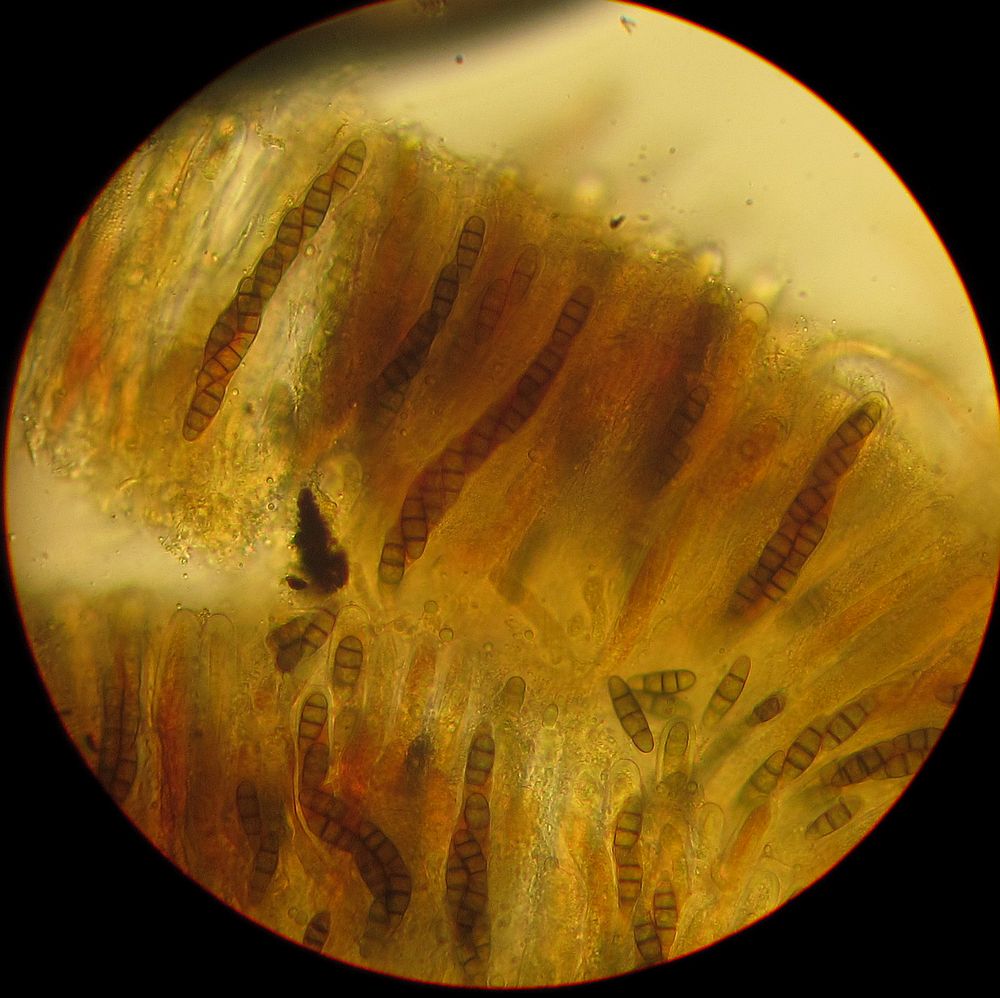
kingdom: Fungi
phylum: Ascomycota
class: Dothideomycetes
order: Hysteriales
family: Hysteriaceae
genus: Hysterium
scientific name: Hysterium acuminatum
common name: almindelig kulmund
